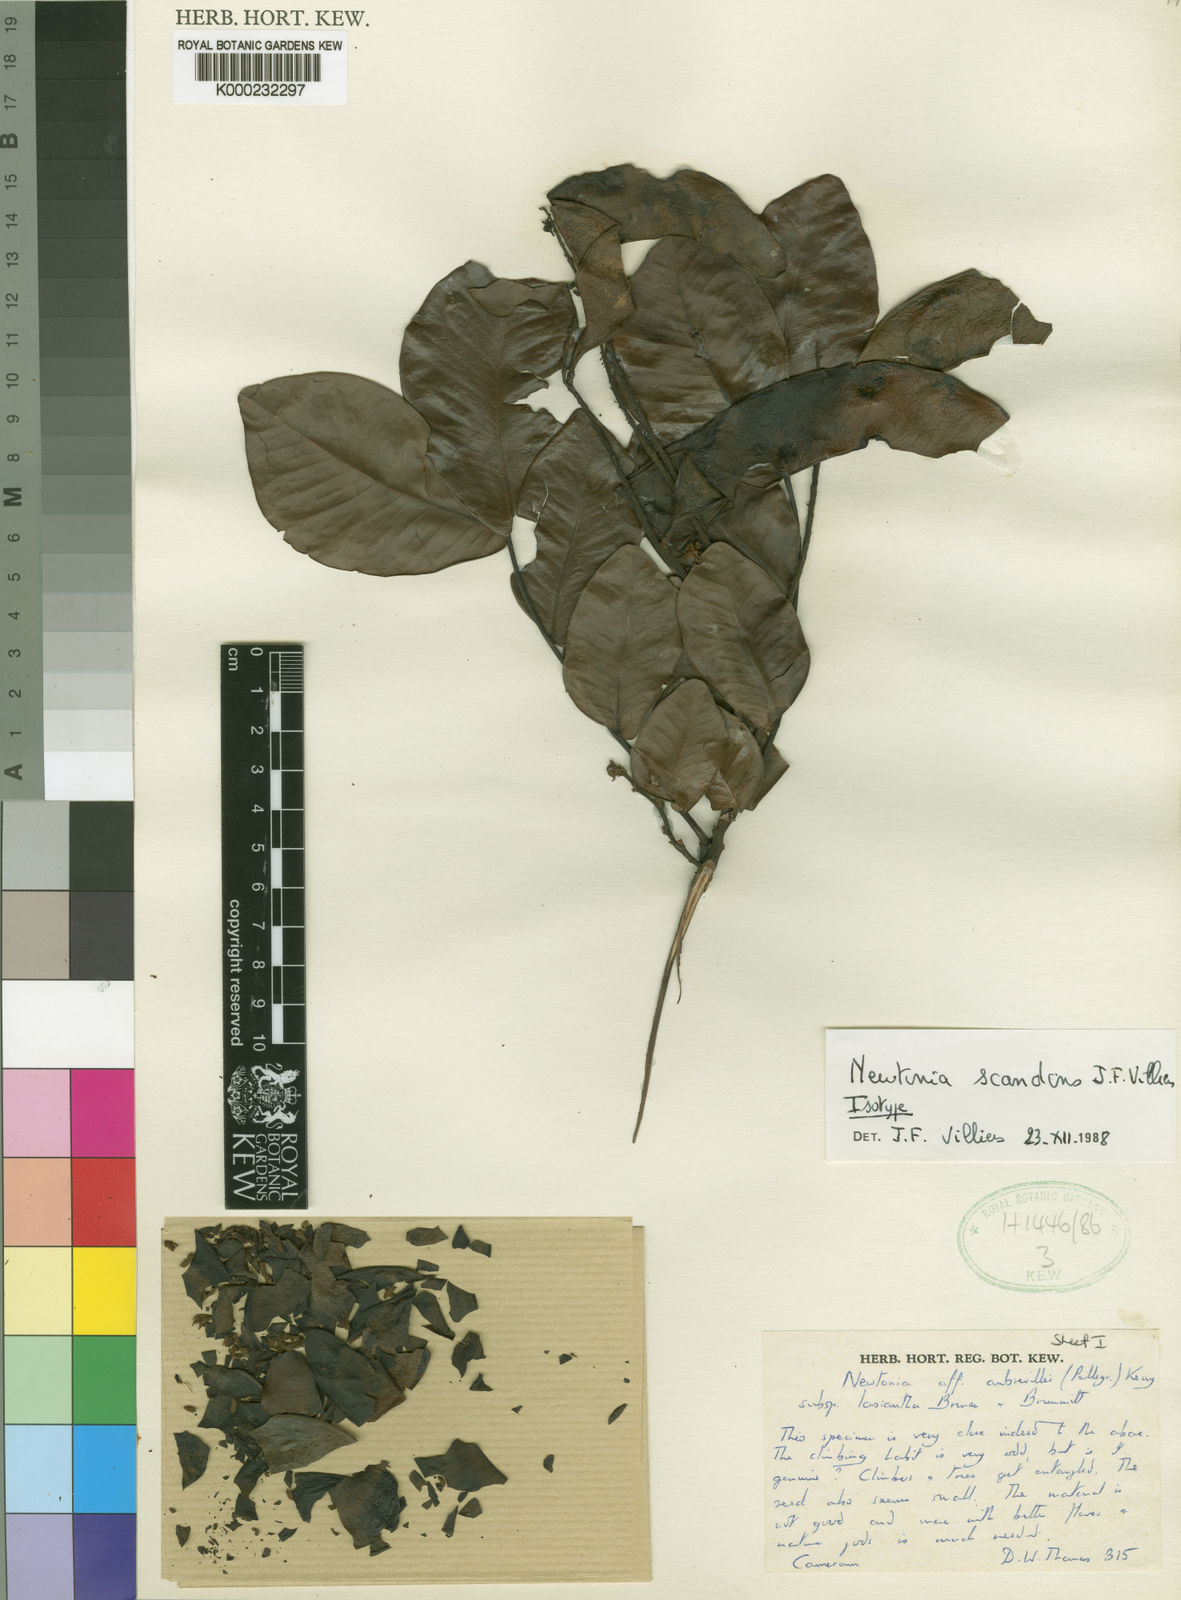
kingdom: Plantae
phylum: Tracheophyta
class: Magnoliopsida
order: Fabales
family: Fabaceae
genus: Newtonia
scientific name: Newtonia scandens
